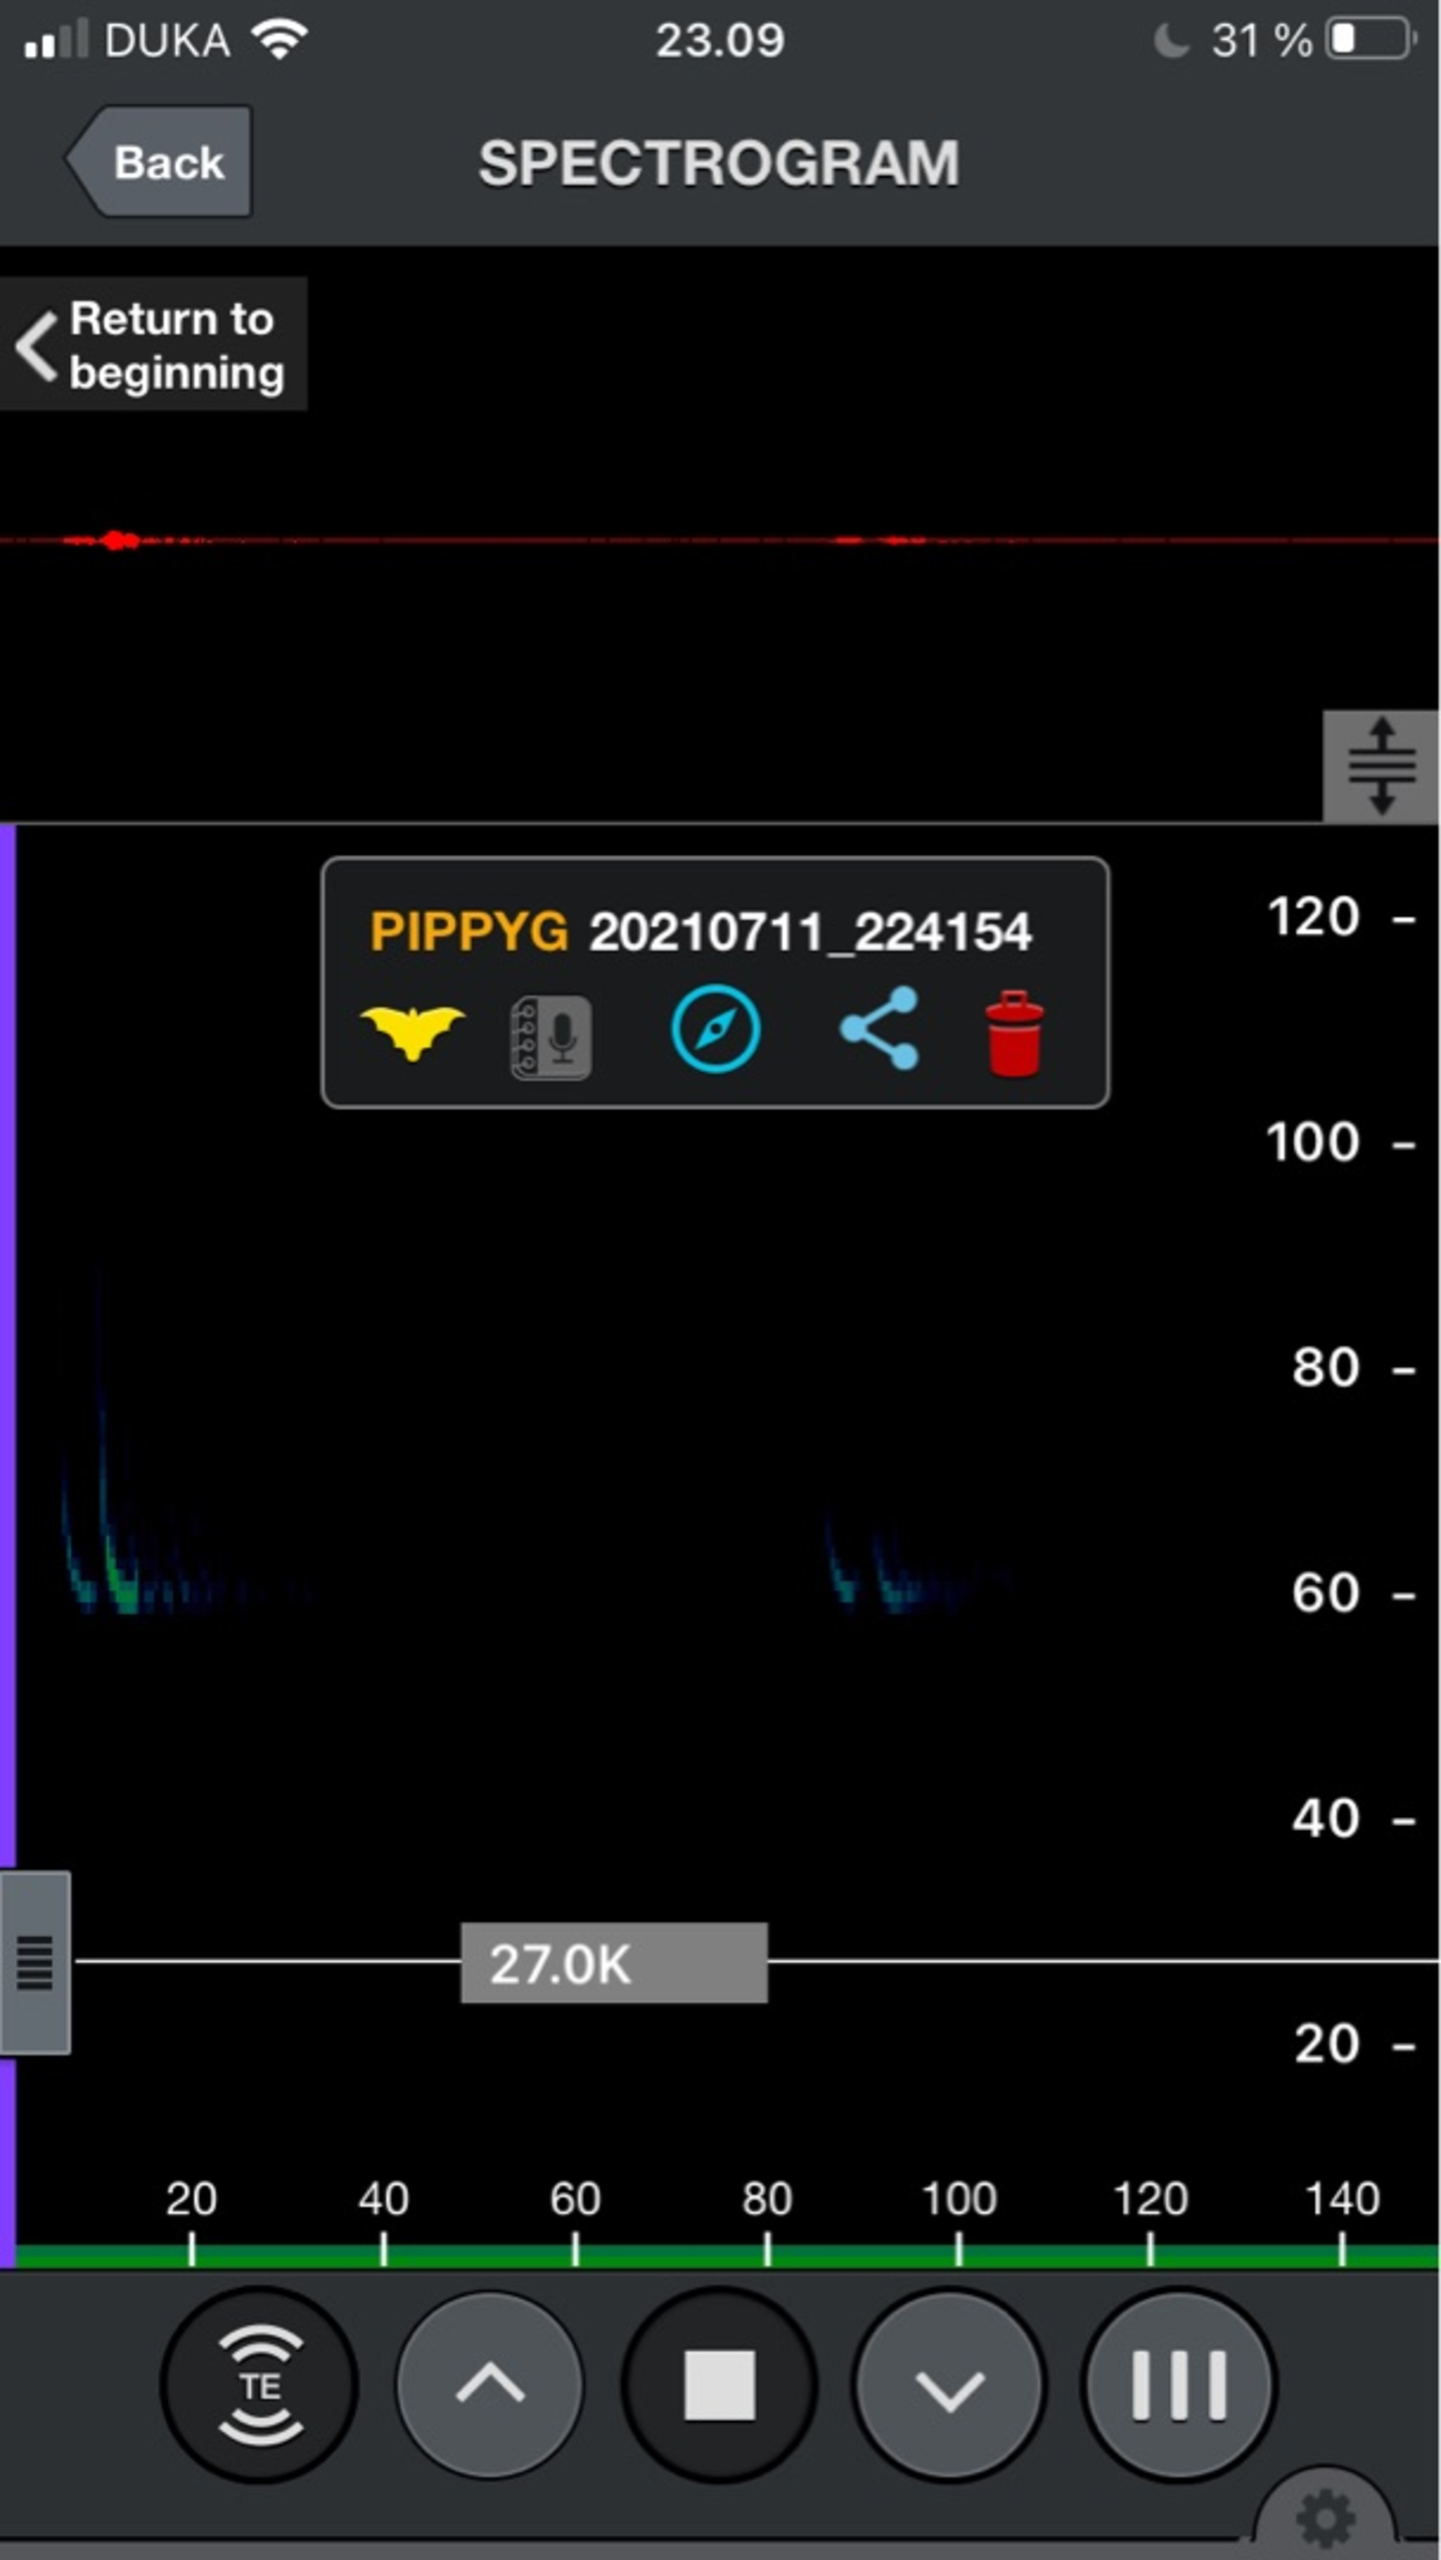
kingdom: Animalia
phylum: Chordata
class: Mammalia
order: Chiroptera
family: Vespertilionidae
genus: Pipistrellus
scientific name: Pipistrellus pygmaeus
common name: Dværgflagermus
